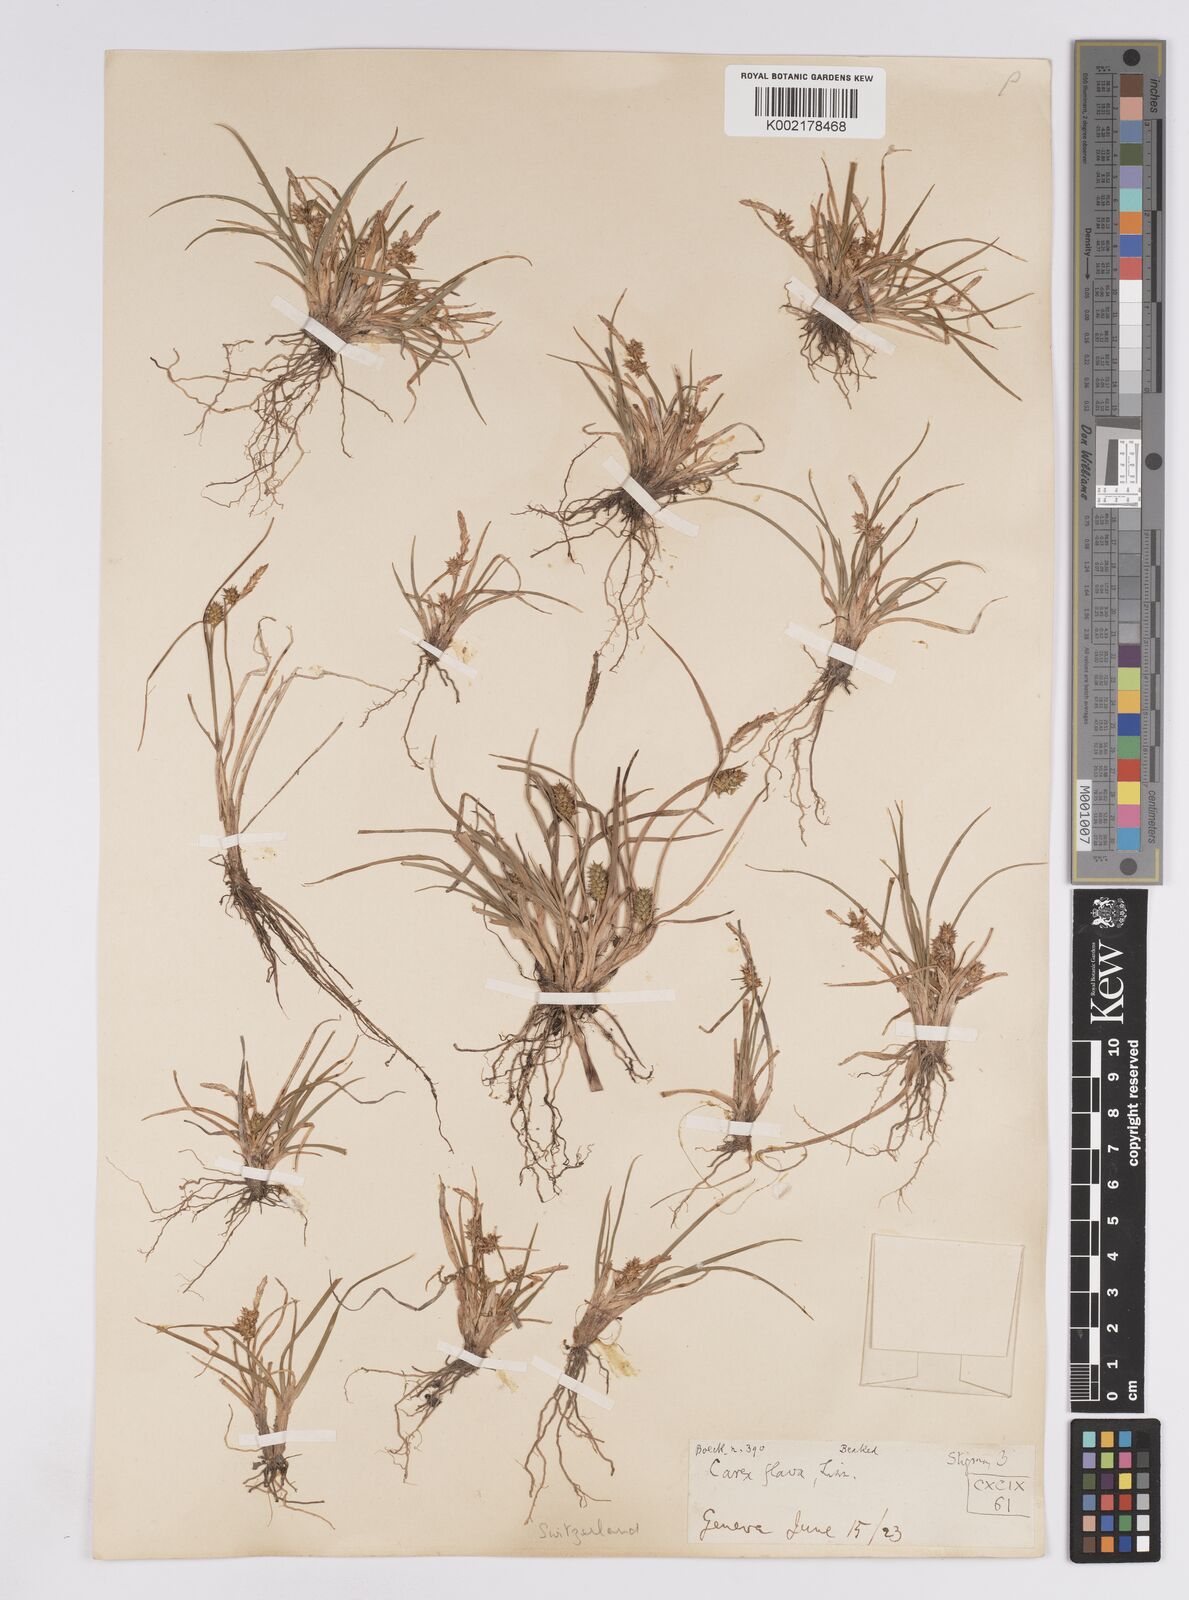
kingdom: Plantae
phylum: Tracheophyta
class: Liliopsida
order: Poales
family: Cyperaceae
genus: Carex
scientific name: Carex demissa
